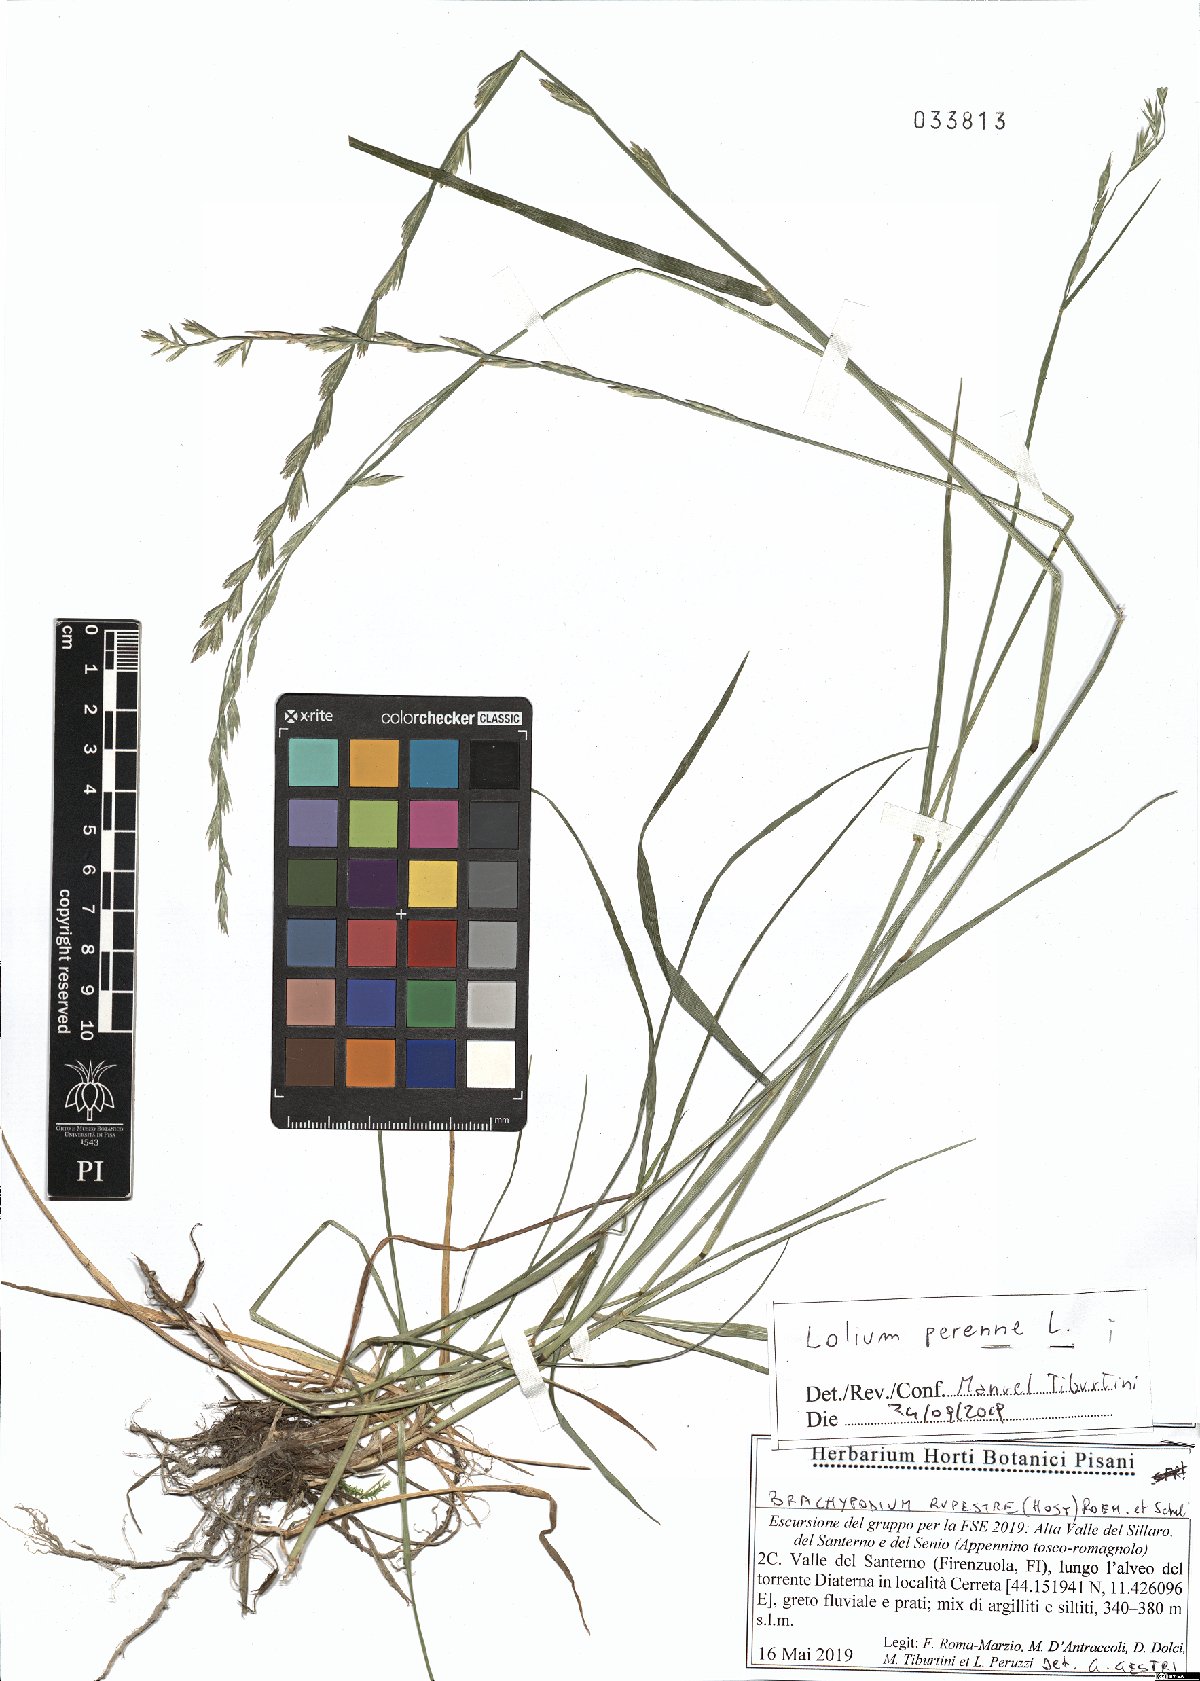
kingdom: Plantae
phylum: Tracheophyta
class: Liliopsida
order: Poales
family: Poaceae
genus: Lolium
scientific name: Lolium perenne
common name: Perennial ryegrass
